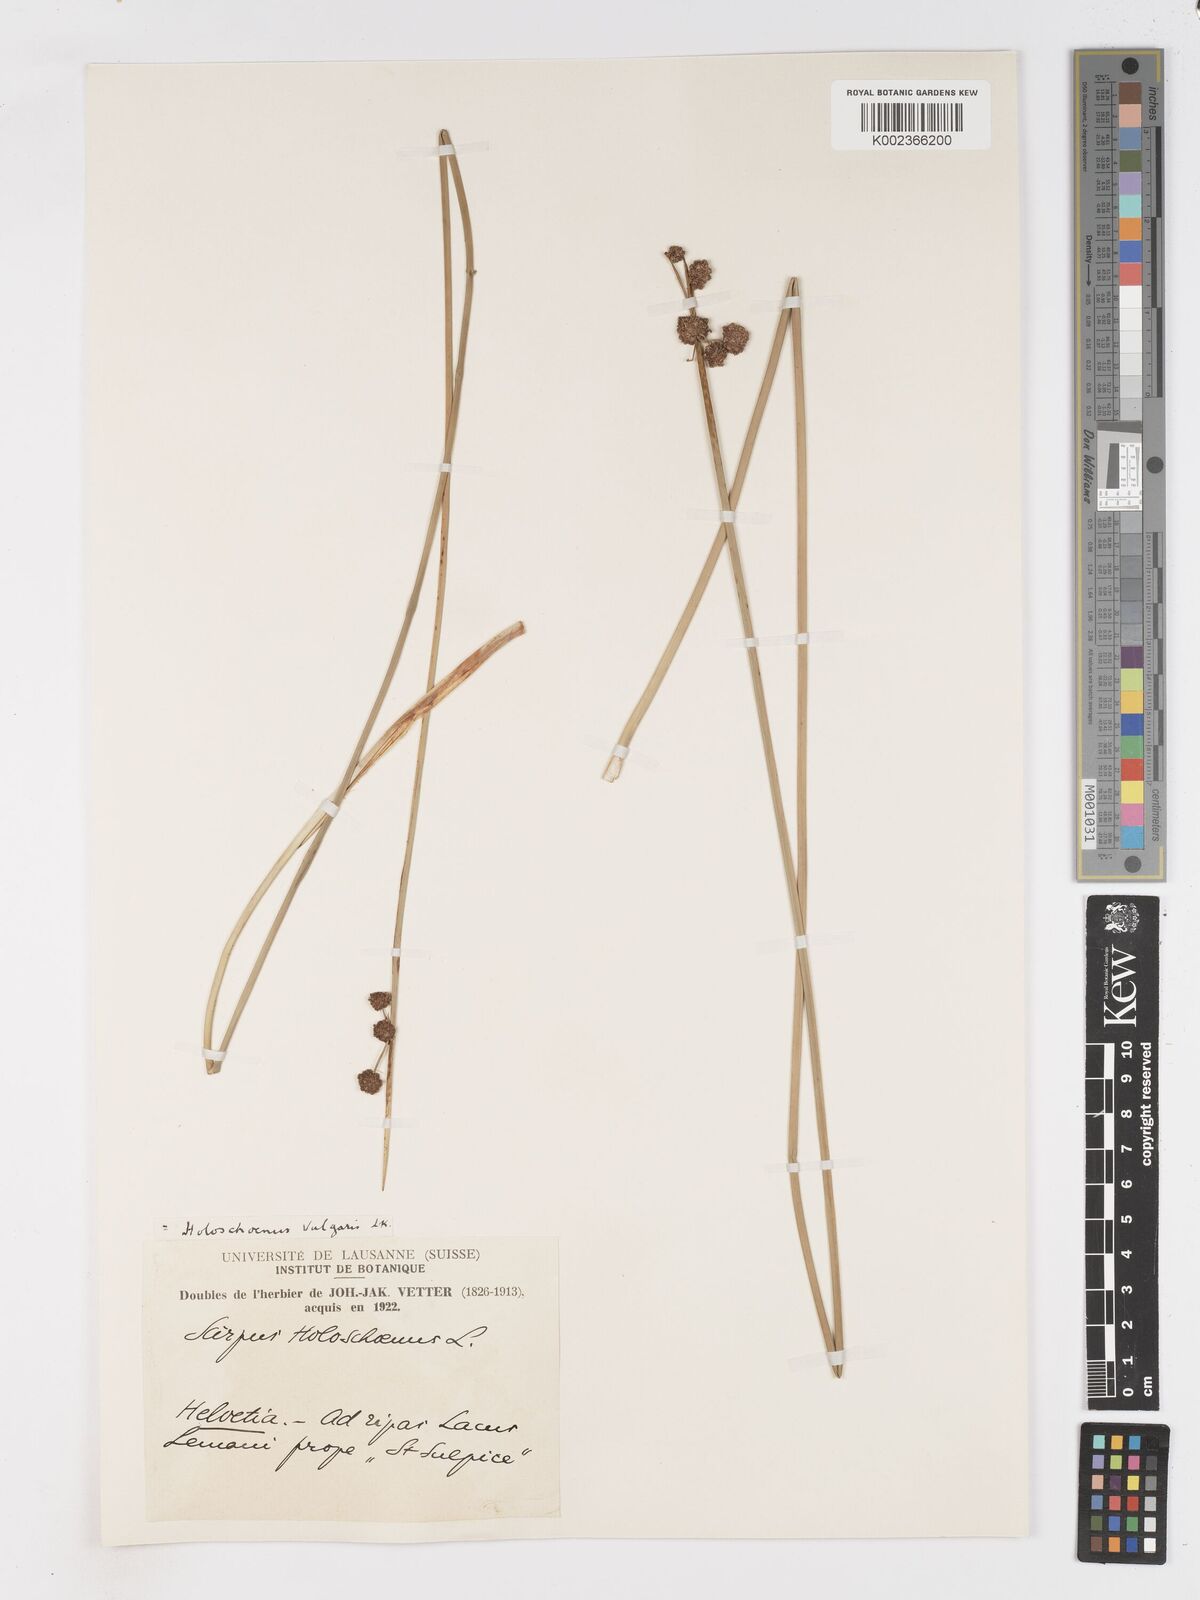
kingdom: Plantae
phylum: Tracheophyta
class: Liliopsida
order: Poales
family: Cyperaceae
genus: Scirpoides
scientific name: Scirpoides holoschoenus
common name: Round-headed club-rush
